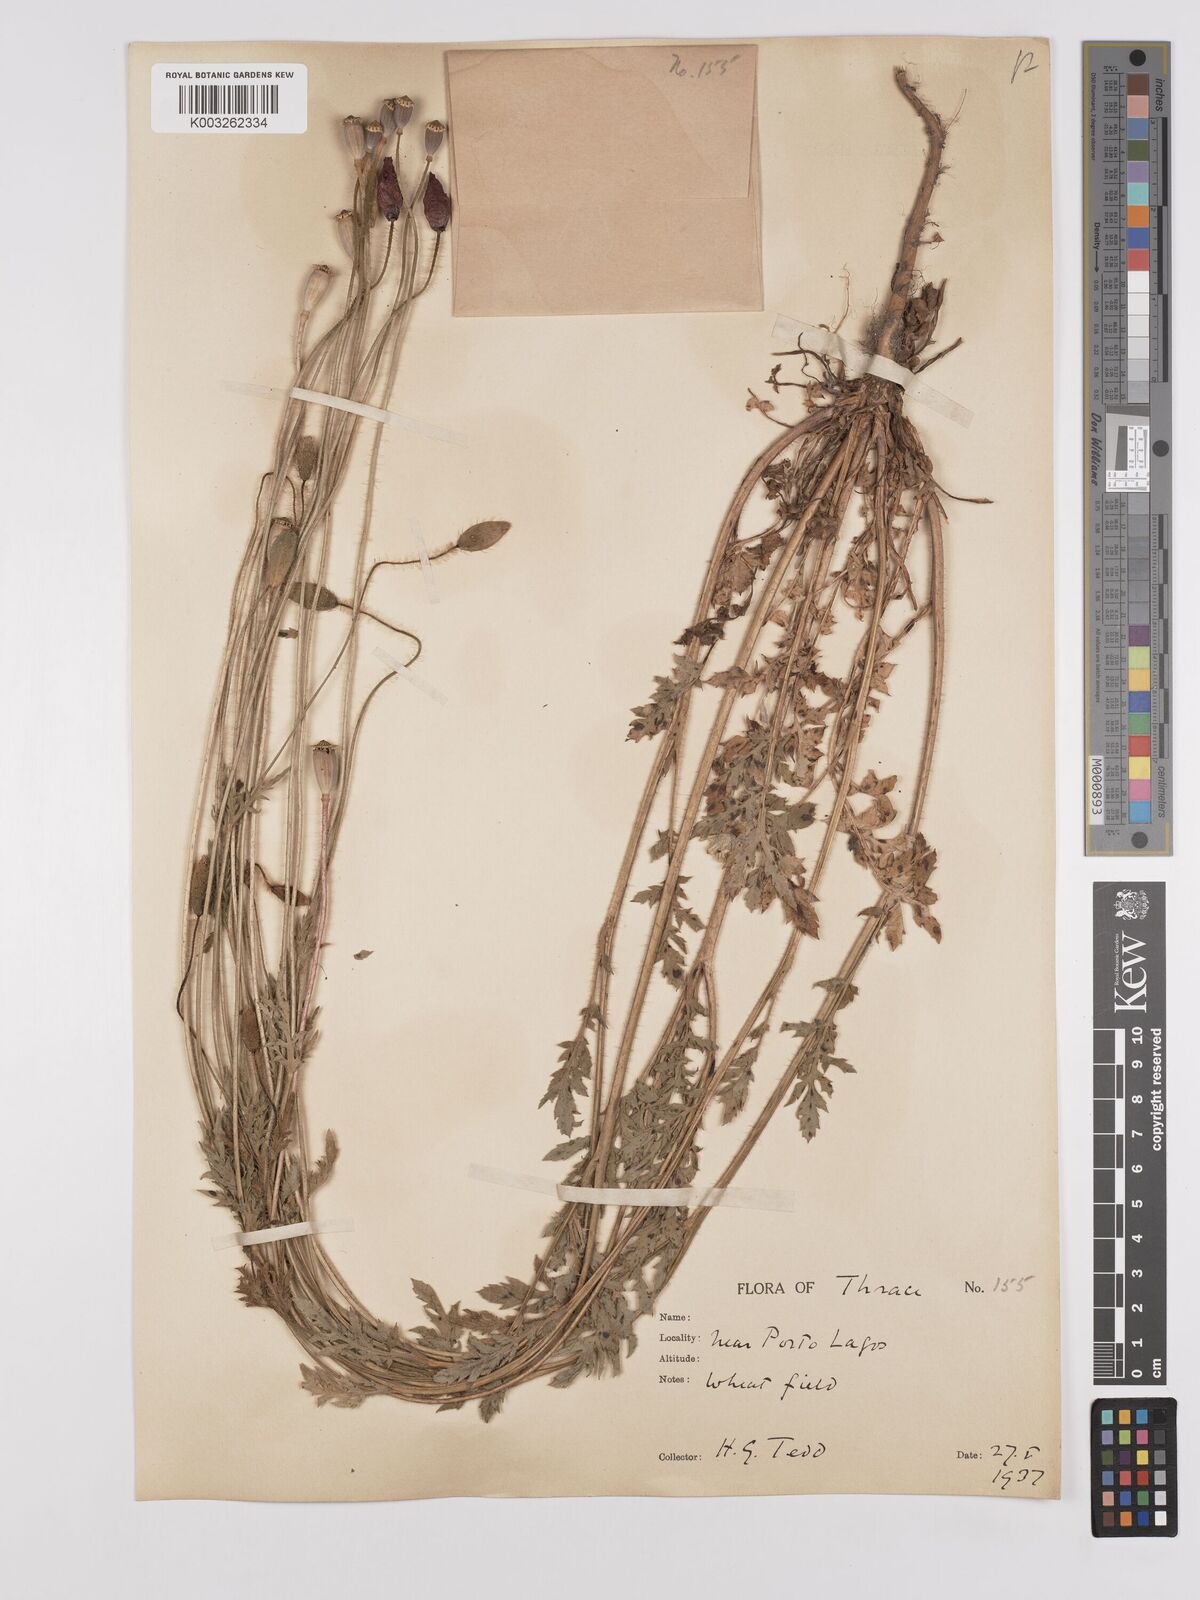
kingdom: Plantae
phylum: Tracheophyta
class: Magnoliopsida
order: Ranunculales
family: Papaveraceae
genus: Papaver
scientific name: Papaver rhoeas
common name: Corn poppy
